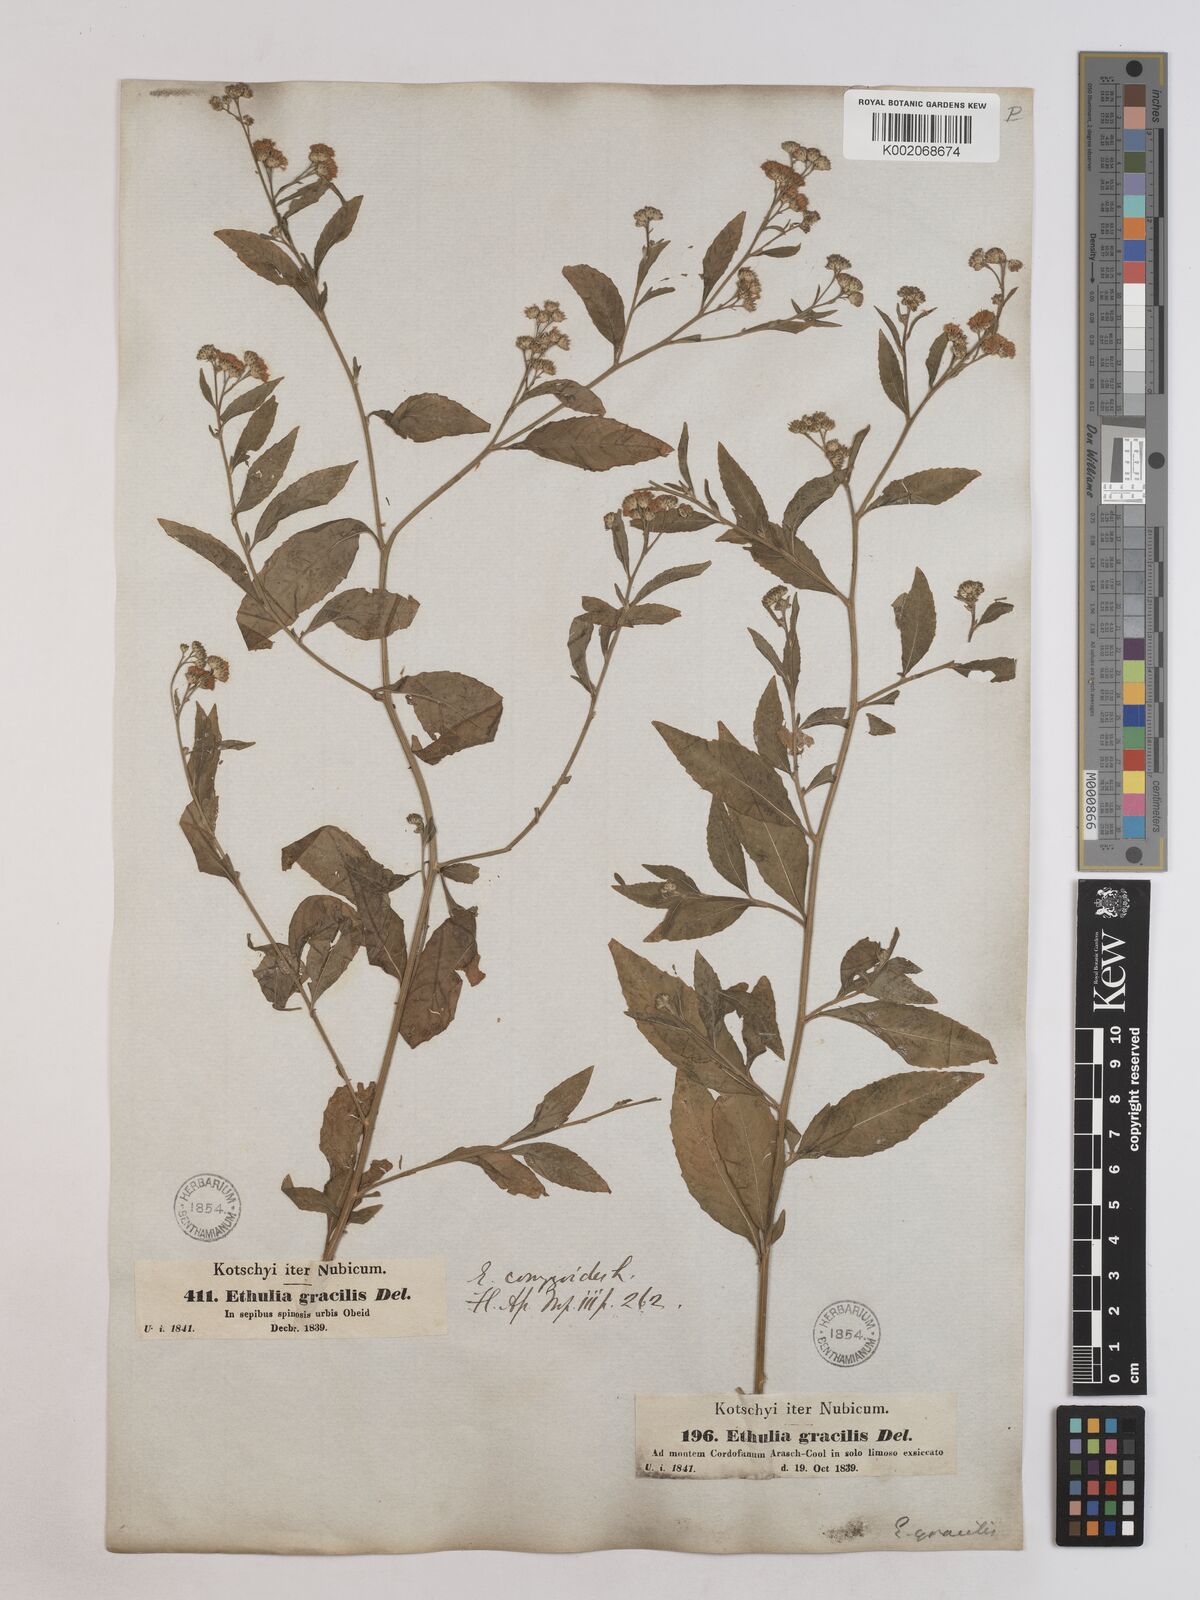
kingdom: Plantae
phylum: Tracheophyta
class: Magnoliopsida
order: Asterales
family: Asteraceae
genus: Ethulia
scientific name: Ethulia gracilis
